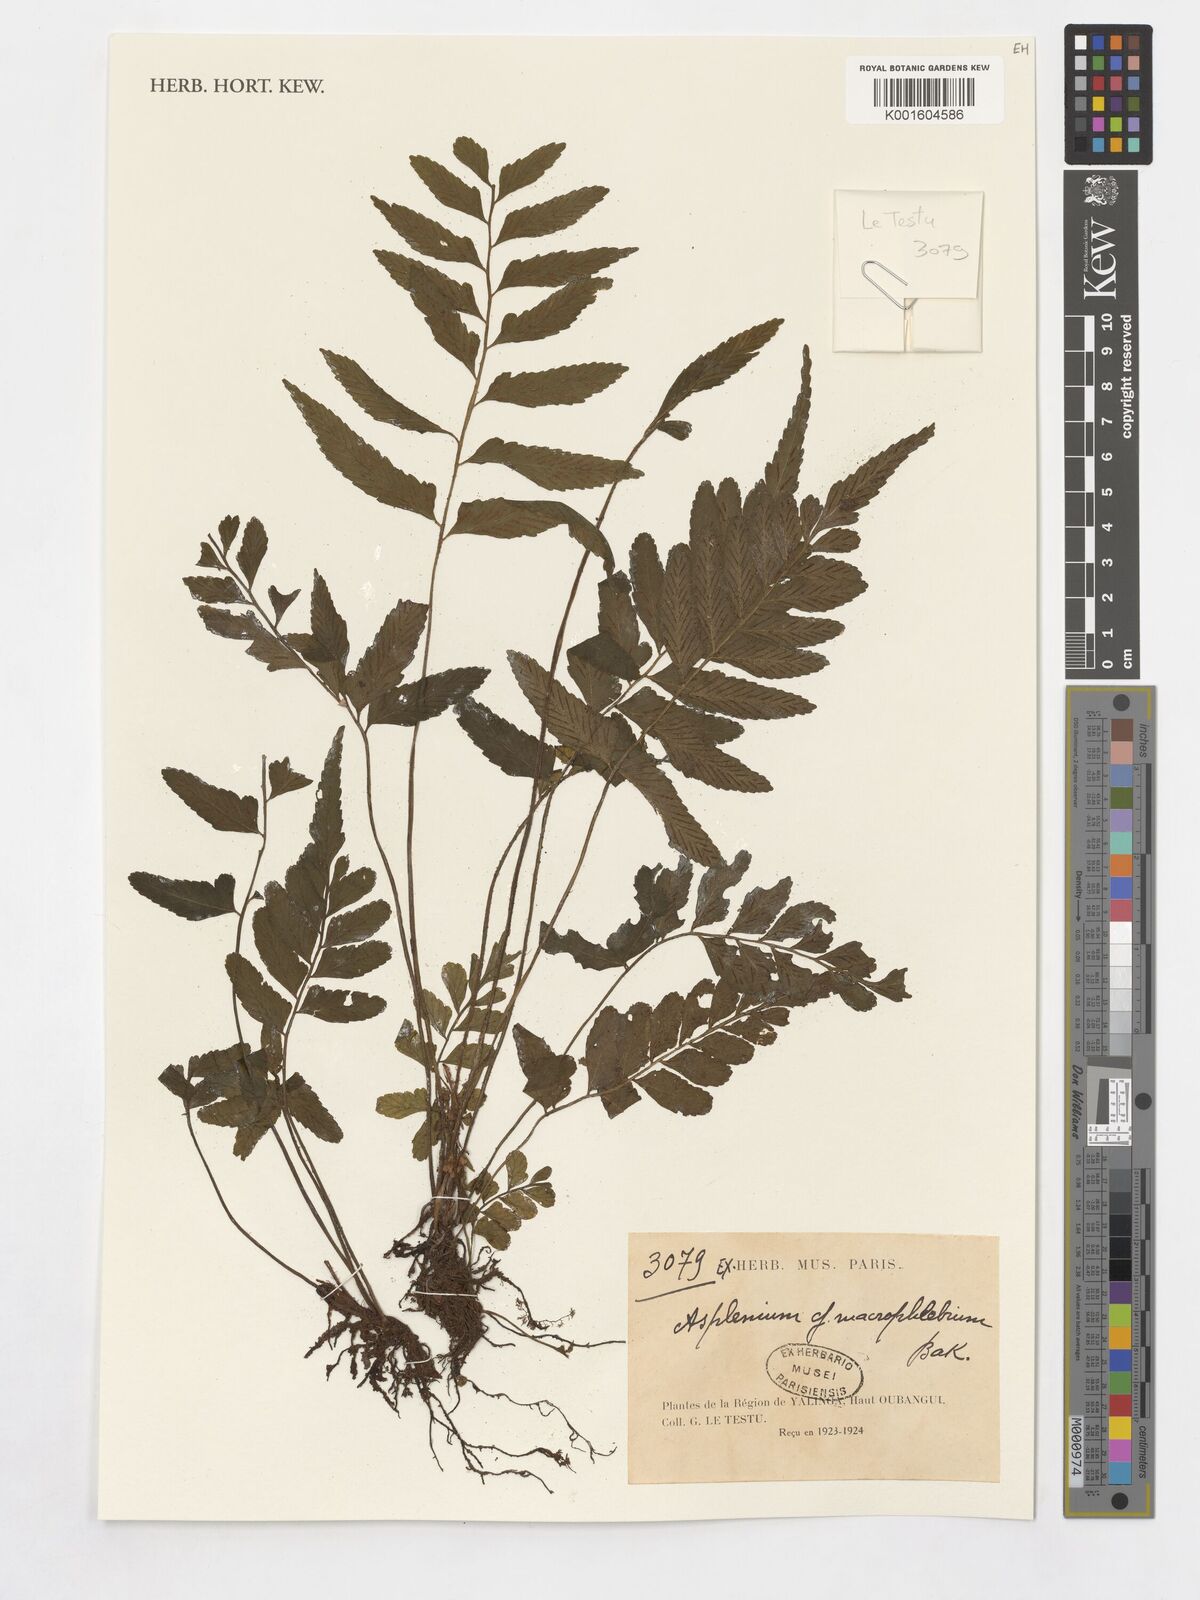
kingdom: Plantae
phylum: Tracheophyta
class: Polypodiopsida
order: Polypodiales
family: Aspleniaceae
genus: Asplenium
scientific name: Asplenium macrophlebium
